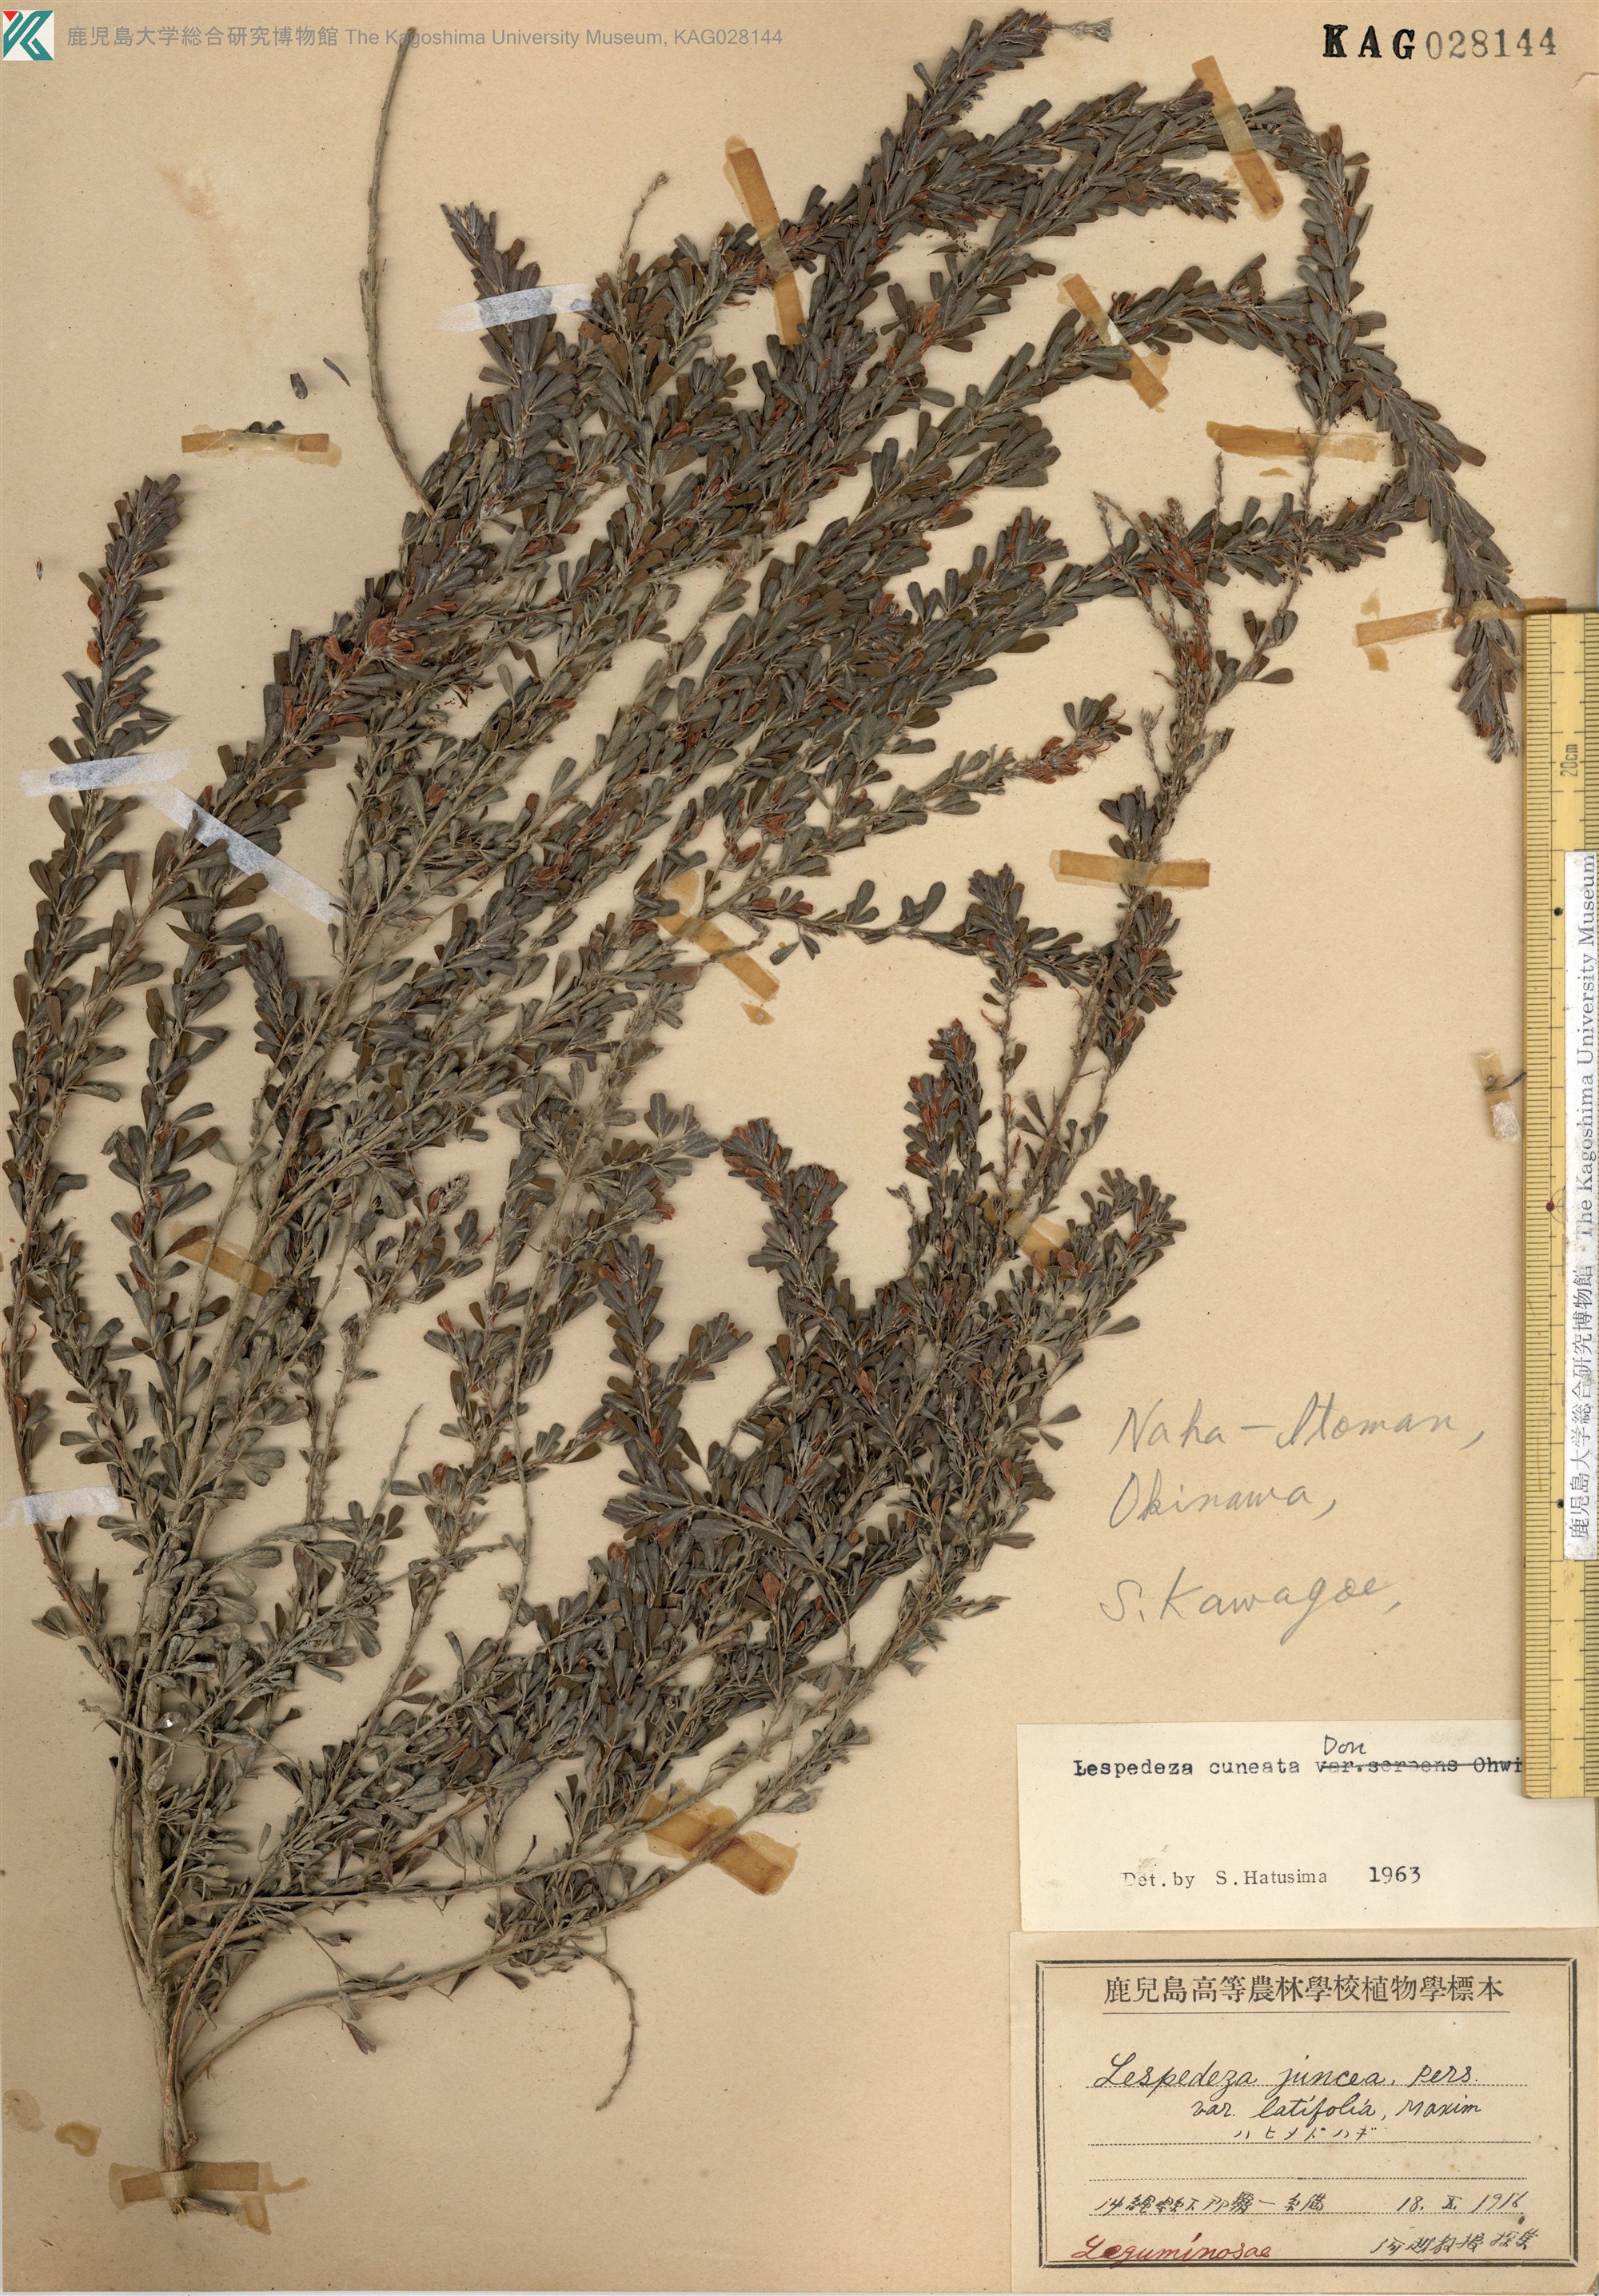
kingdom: Plantae
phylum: Tracheophyta
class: Magnoliopsida
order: Fabales
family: Fabaceae
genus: Lespedeza
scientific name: Lespedeza cuneata
